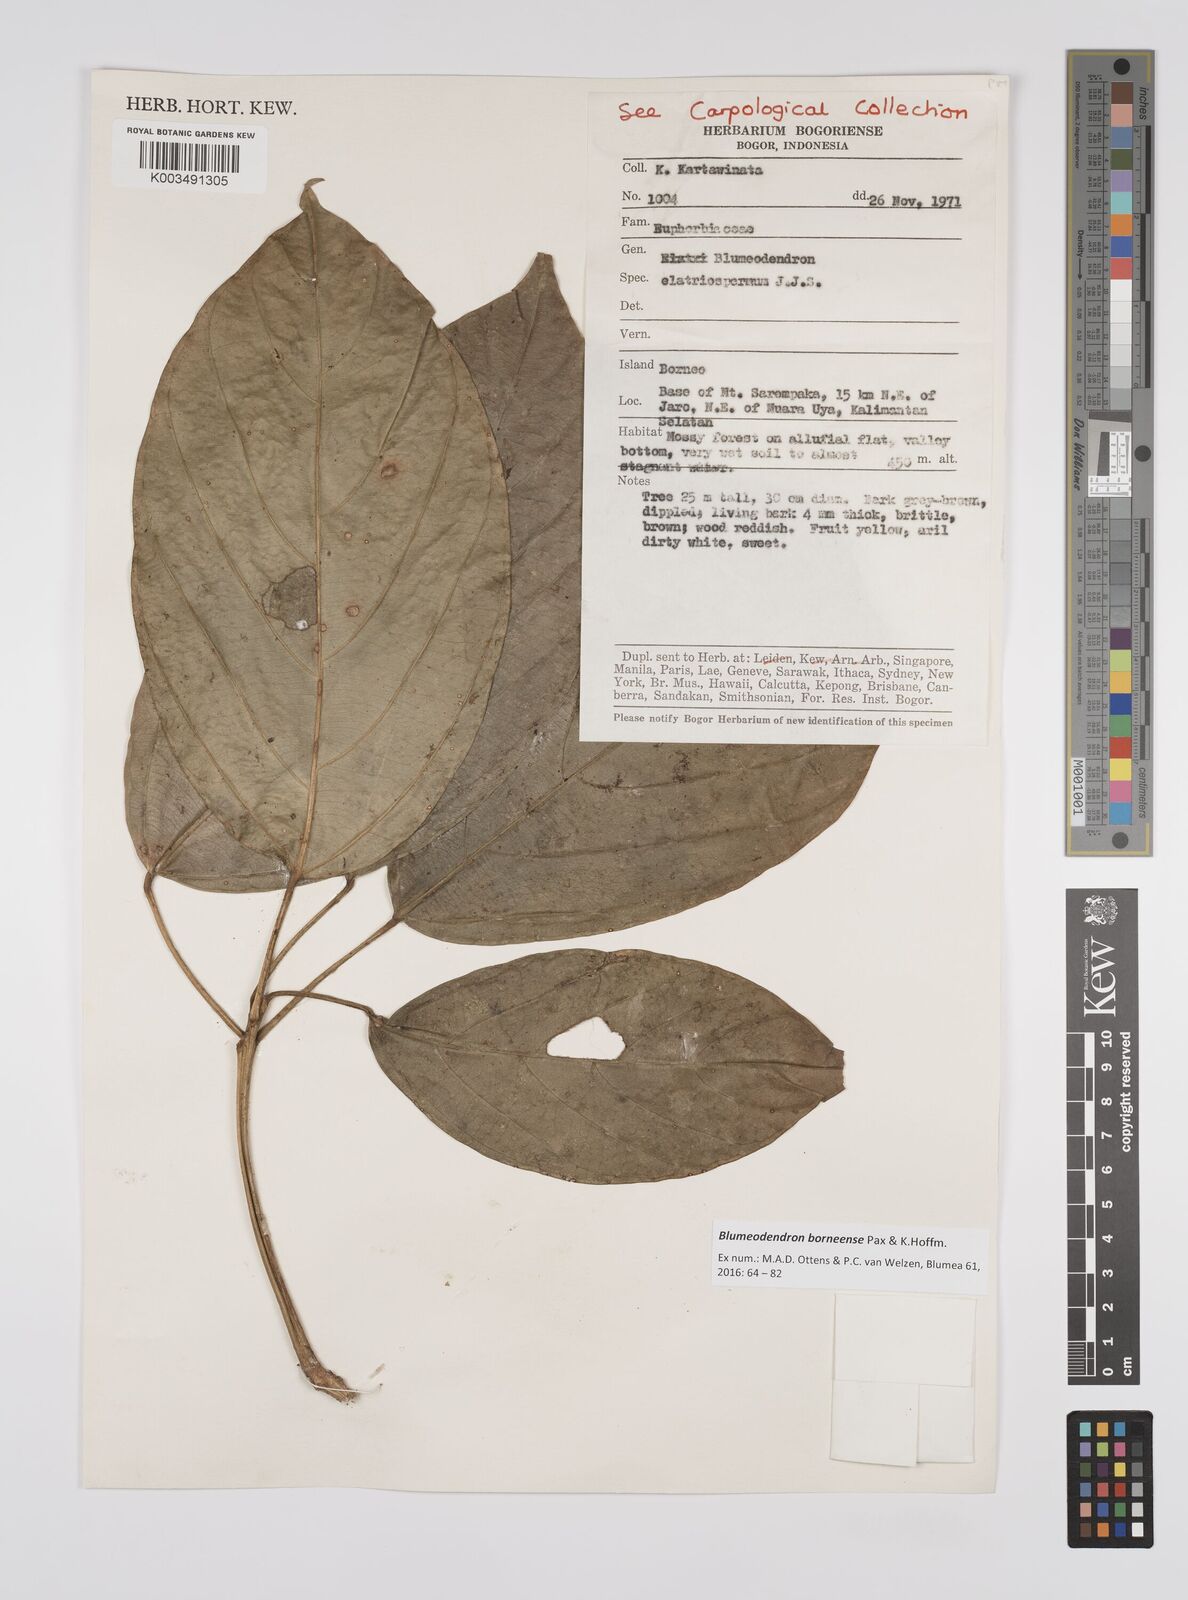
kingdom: Plantae
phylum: Tracheophyta
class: Magnoliopsida
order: Malpighiales
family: Euphorbiaceae
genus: Blumeodendron
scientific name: Blumeodendron borneense
